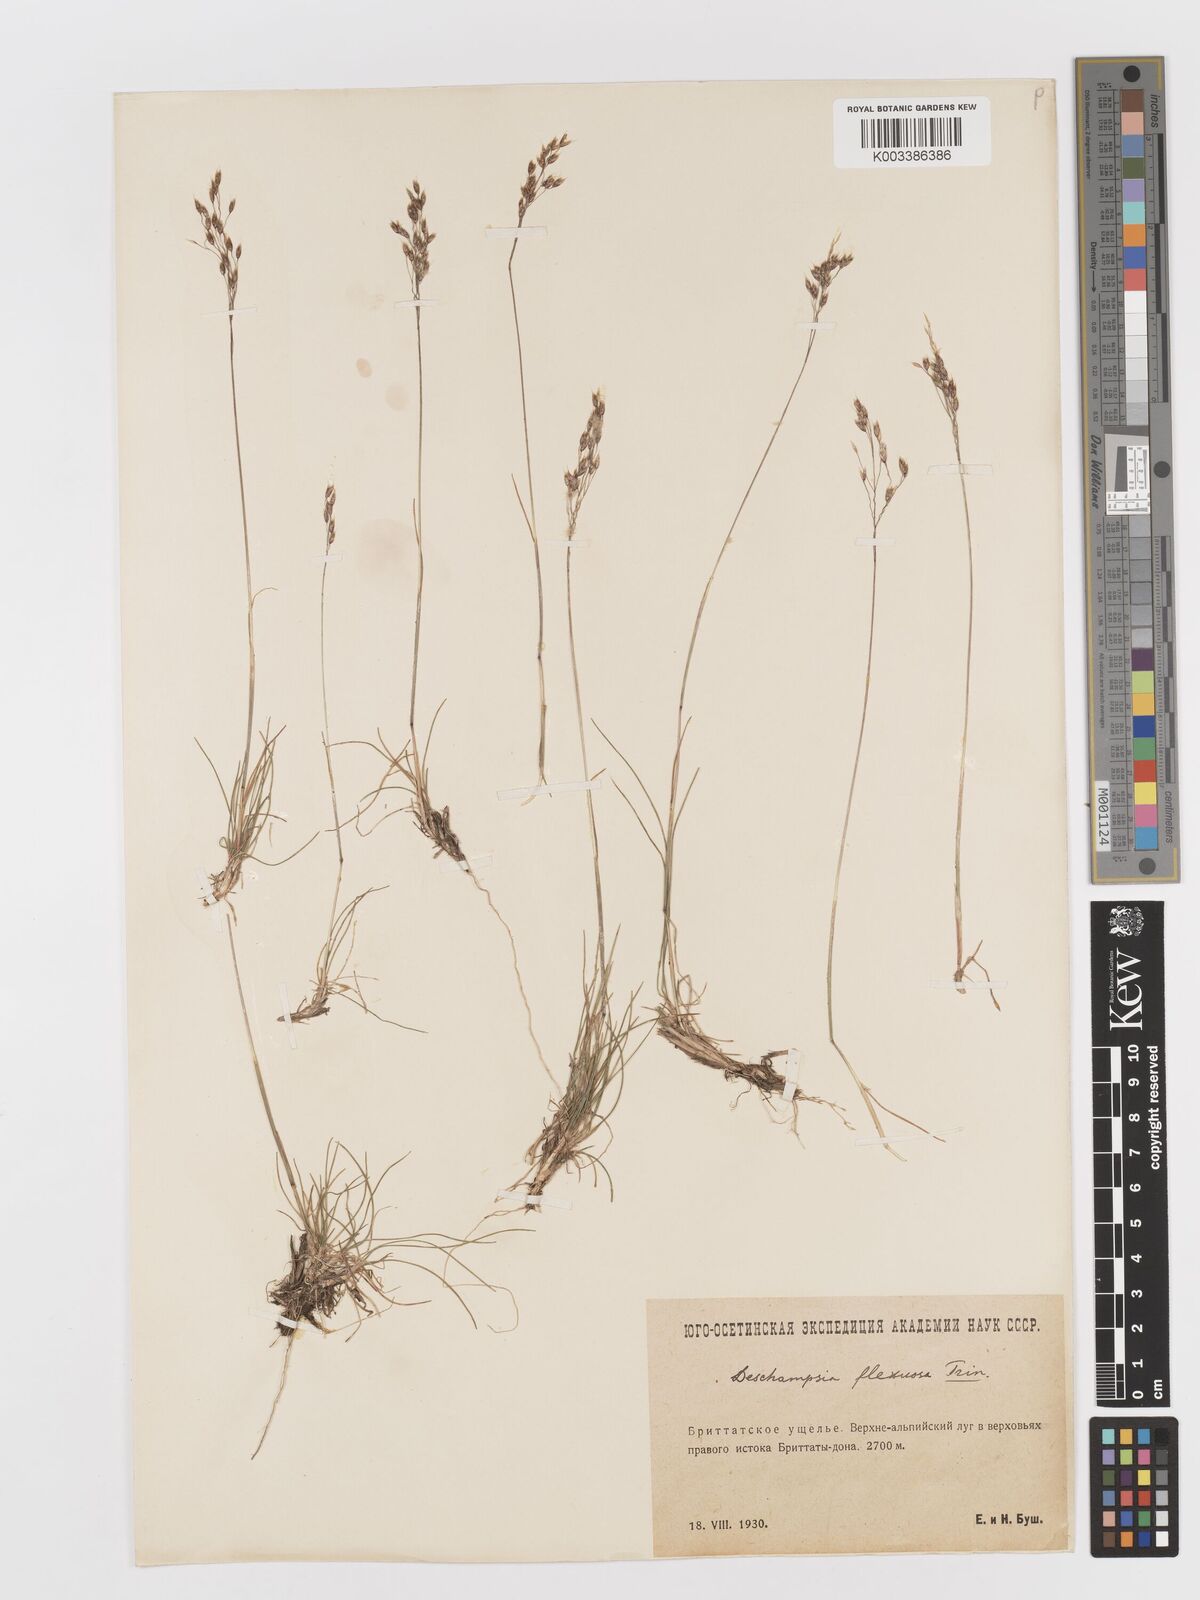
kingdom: Plantae
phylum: Tracheophyta
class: Liliopsida
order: Poales
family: Poaceae
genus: Avenella
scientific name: Avenella flexuosa
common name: Wavy hairgrass
